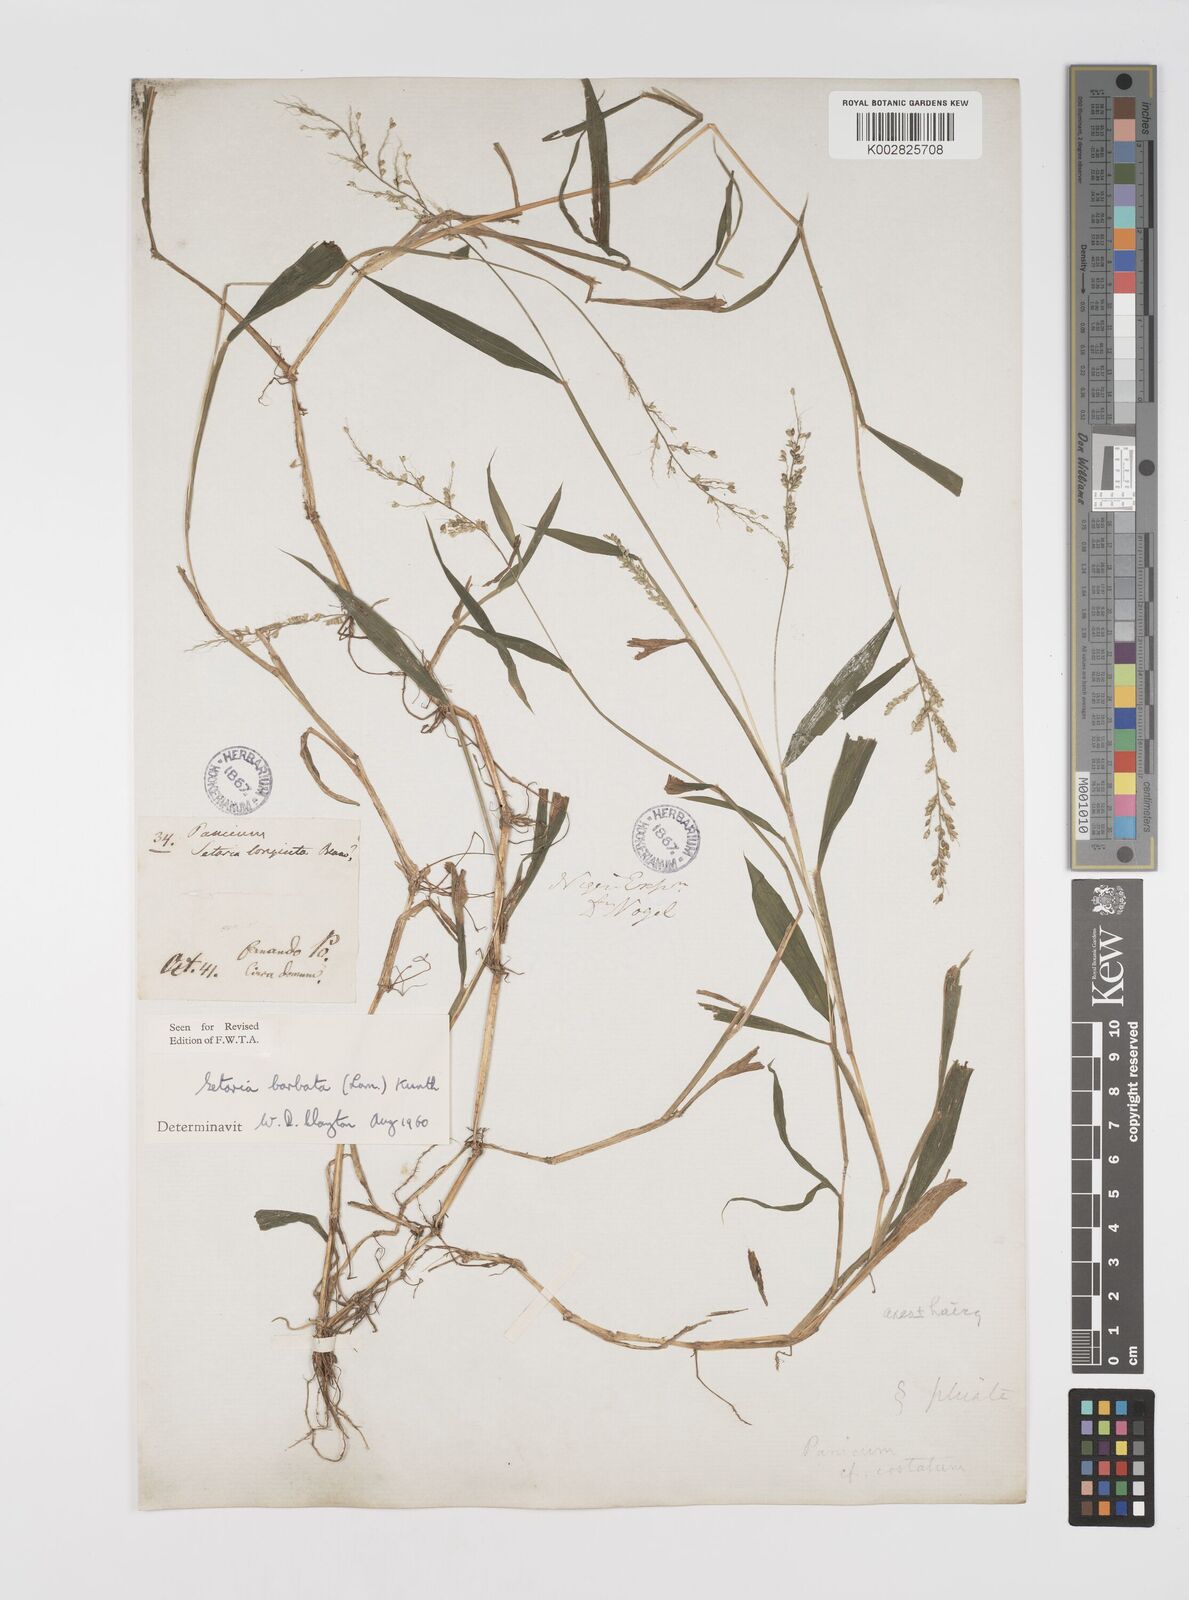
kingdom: Plantae
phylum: Tracheophyta
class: Liliopsida
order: Poales
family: Poaceae
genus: Setaria
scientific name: Setaria barbata
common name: East indian bristlegrass
